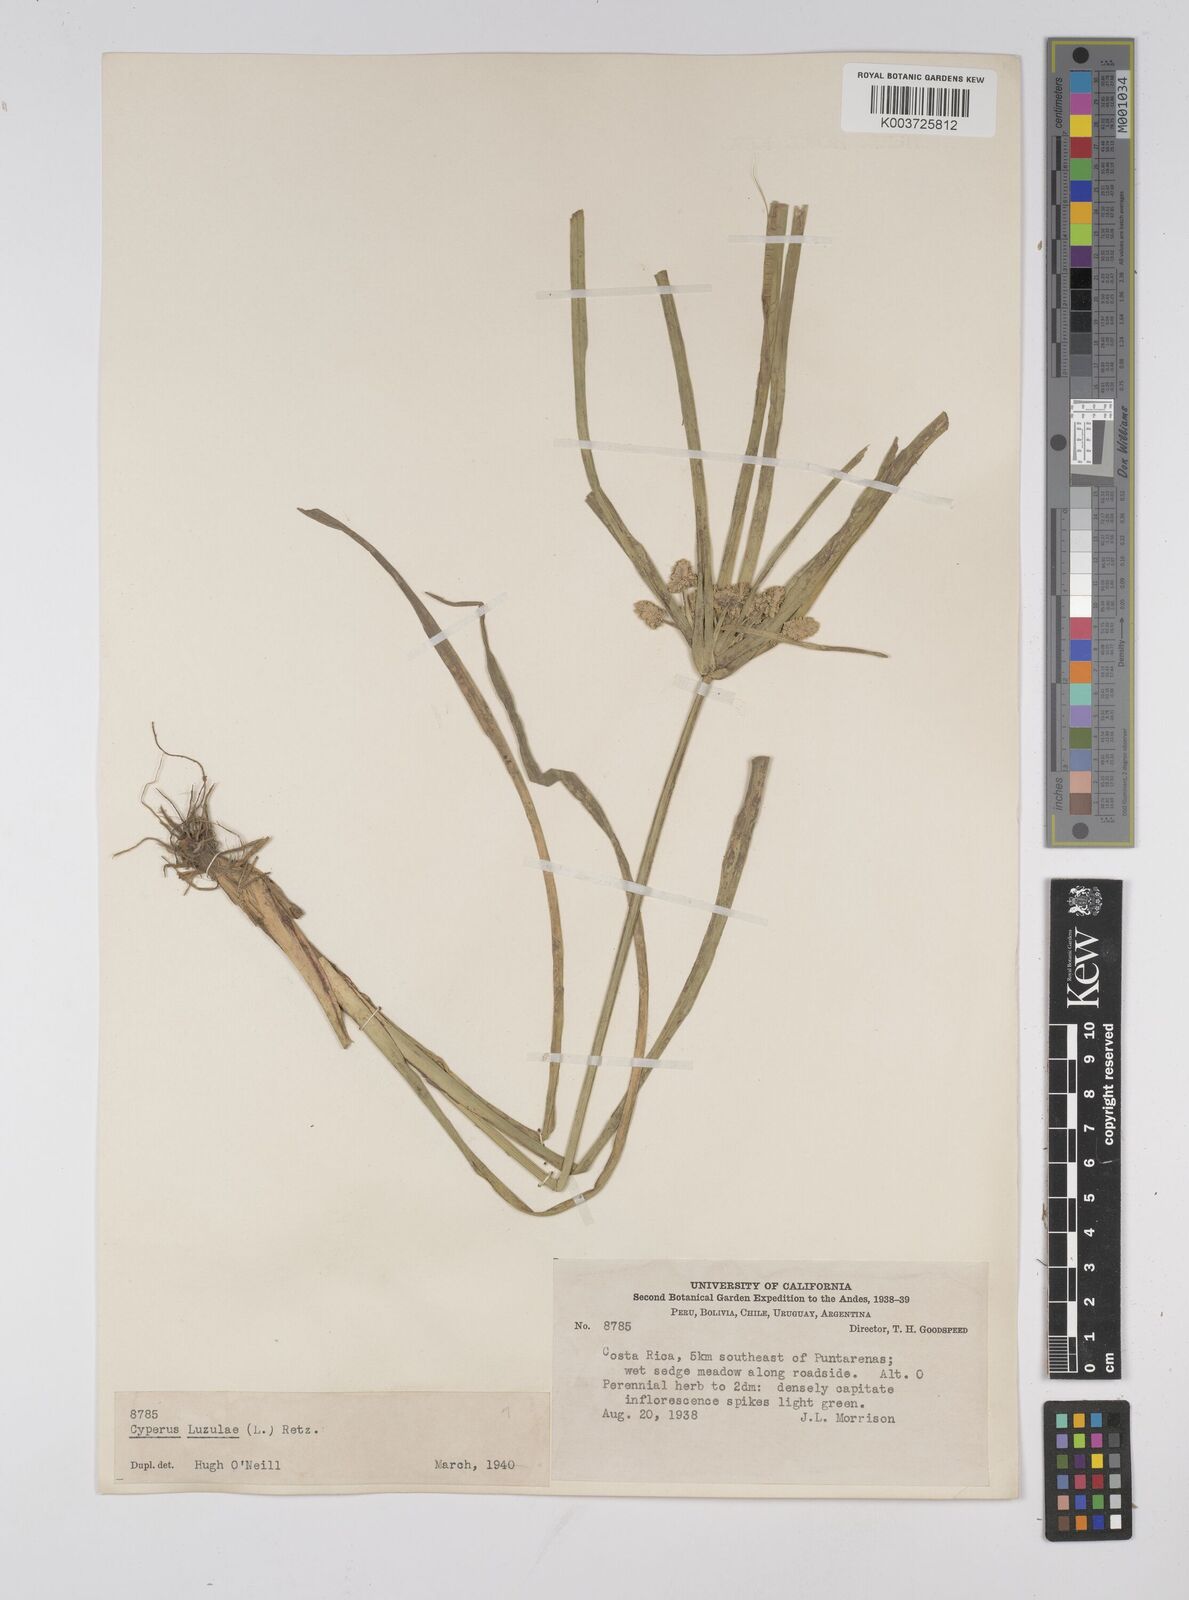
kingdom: Plantae
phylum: Tracheophyta
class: Liliopsida
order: Poales
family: Cyperaceae
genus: Cyperus
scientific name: Cyperus luzulae
